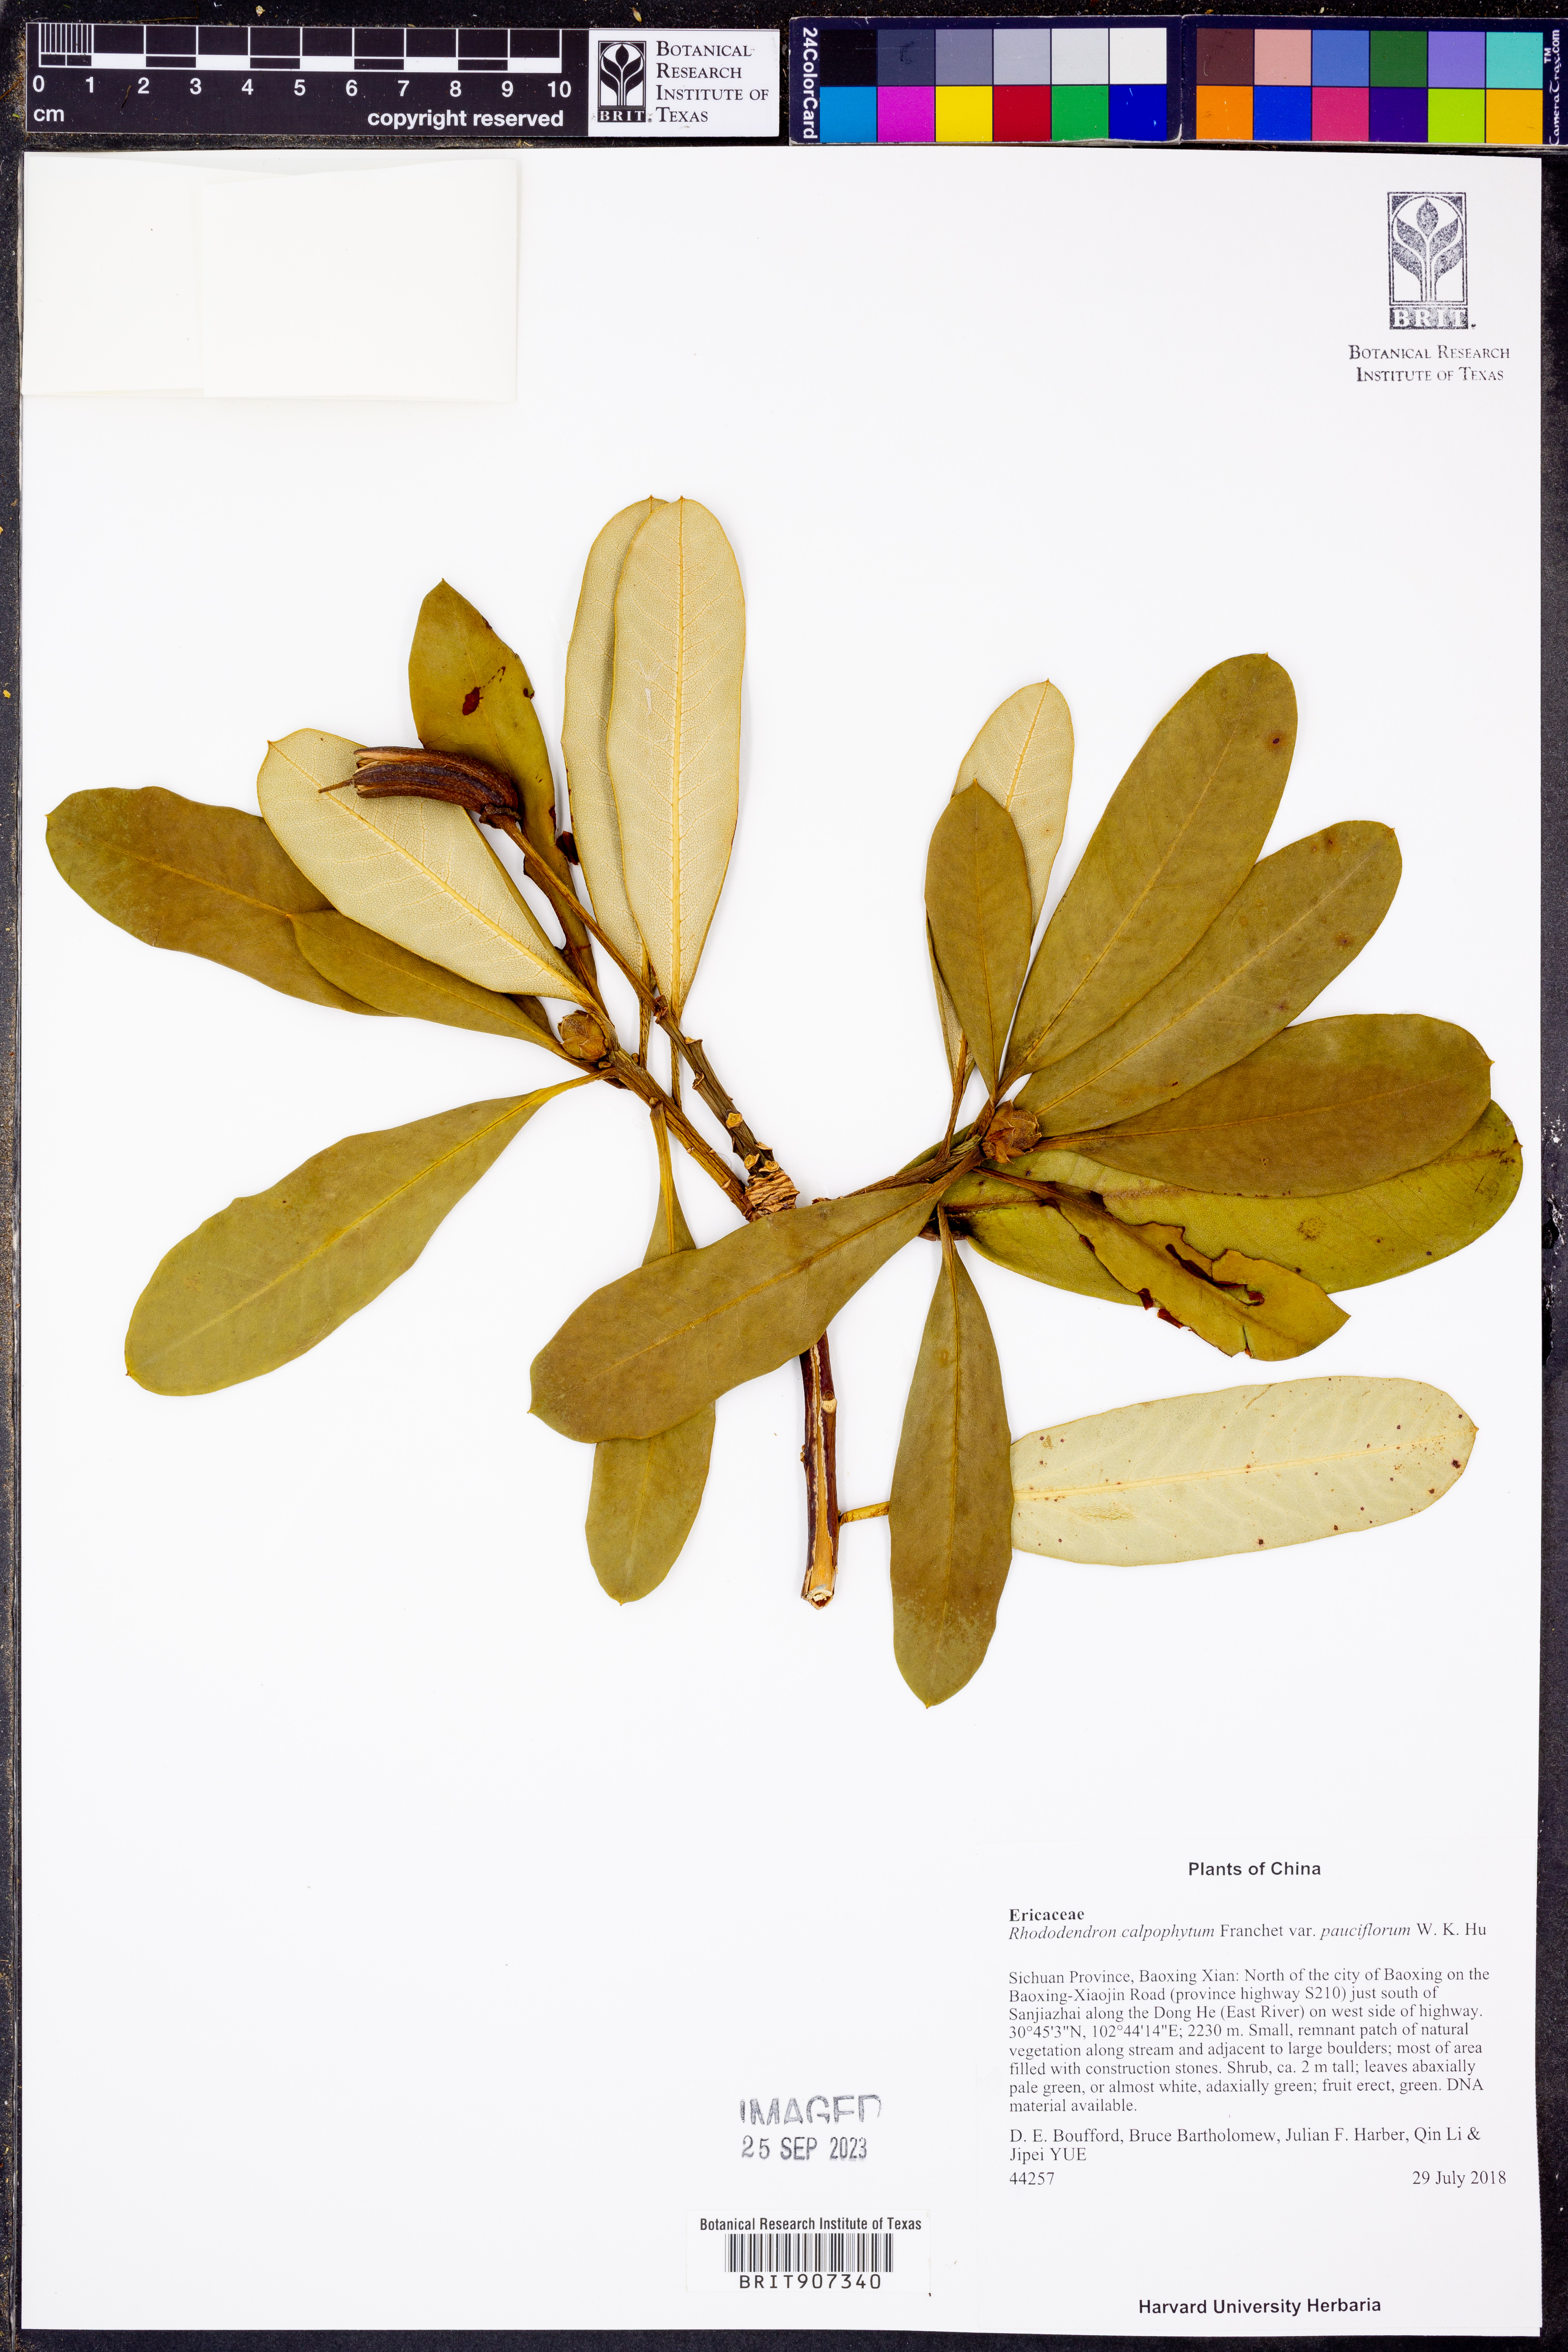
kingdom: Plantae
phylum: Tracheophyta
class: Magnoliopsida
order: Ericales
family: Ericaceae
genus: Rhododendron
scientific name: Rhododendron calophytum
